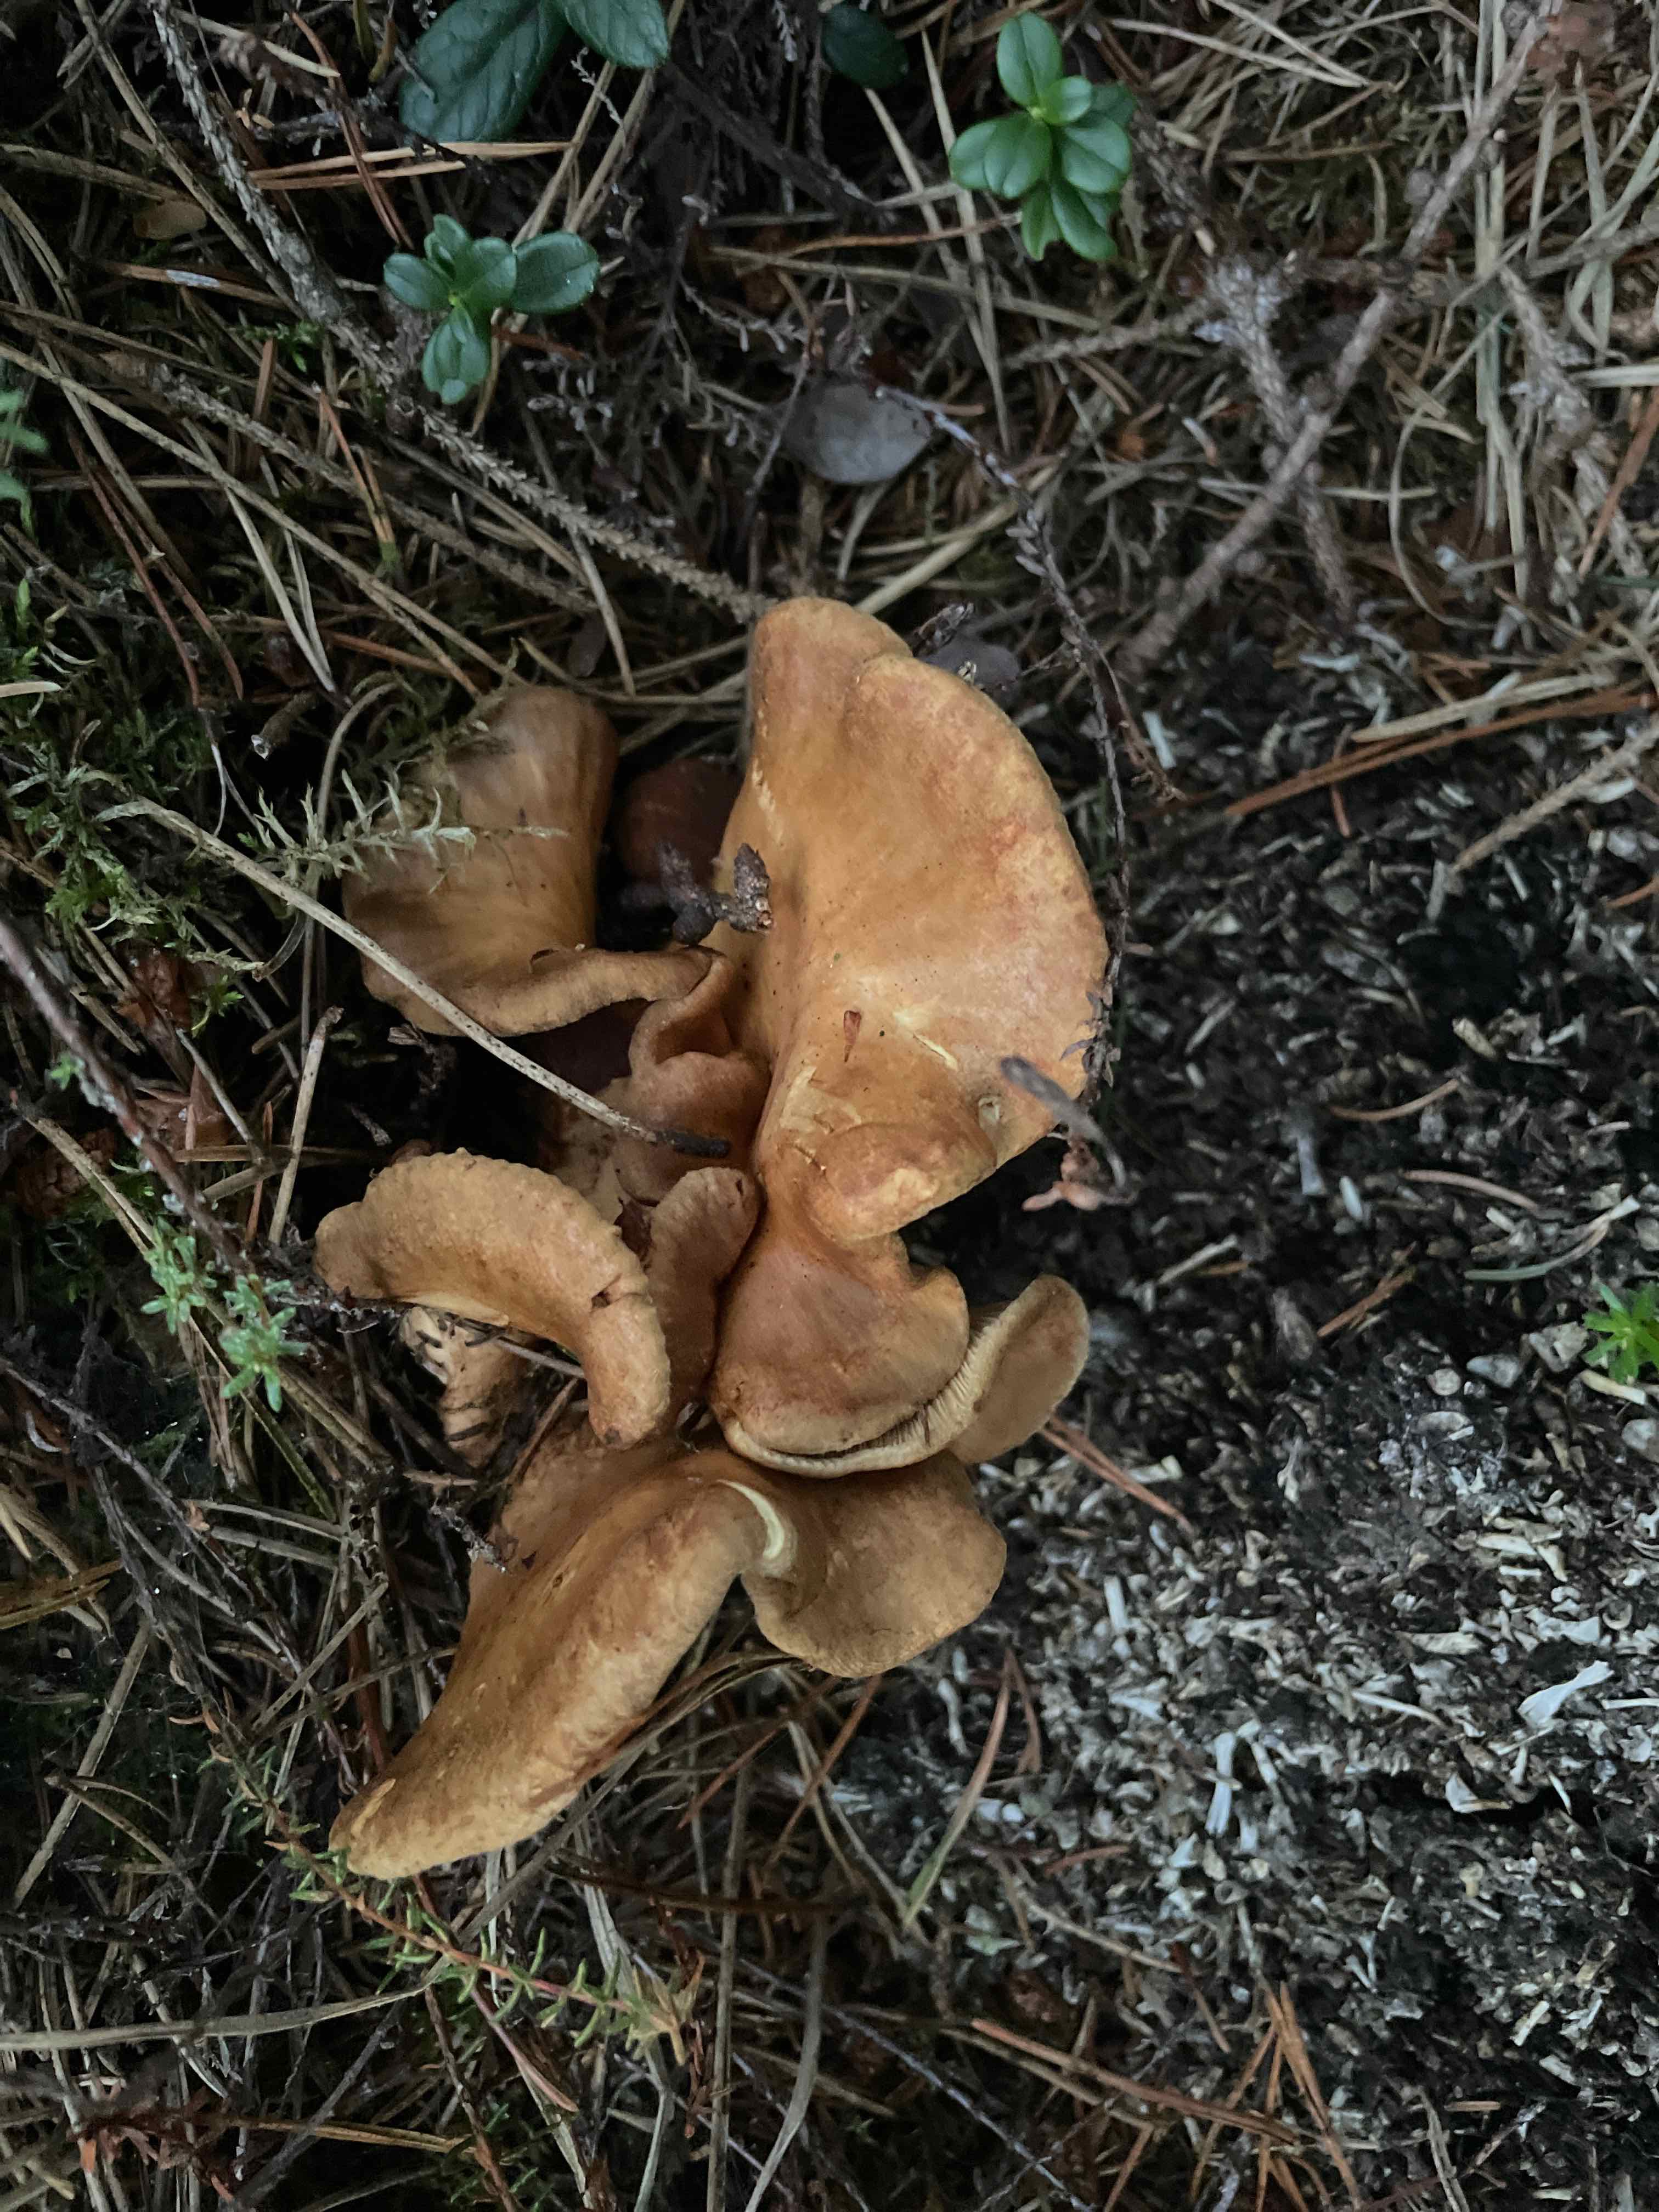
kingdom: Fungi
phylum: Basidiomycota
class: Agaricomycetes
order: Boletales
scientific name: Boletales
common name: rørhatordenen
